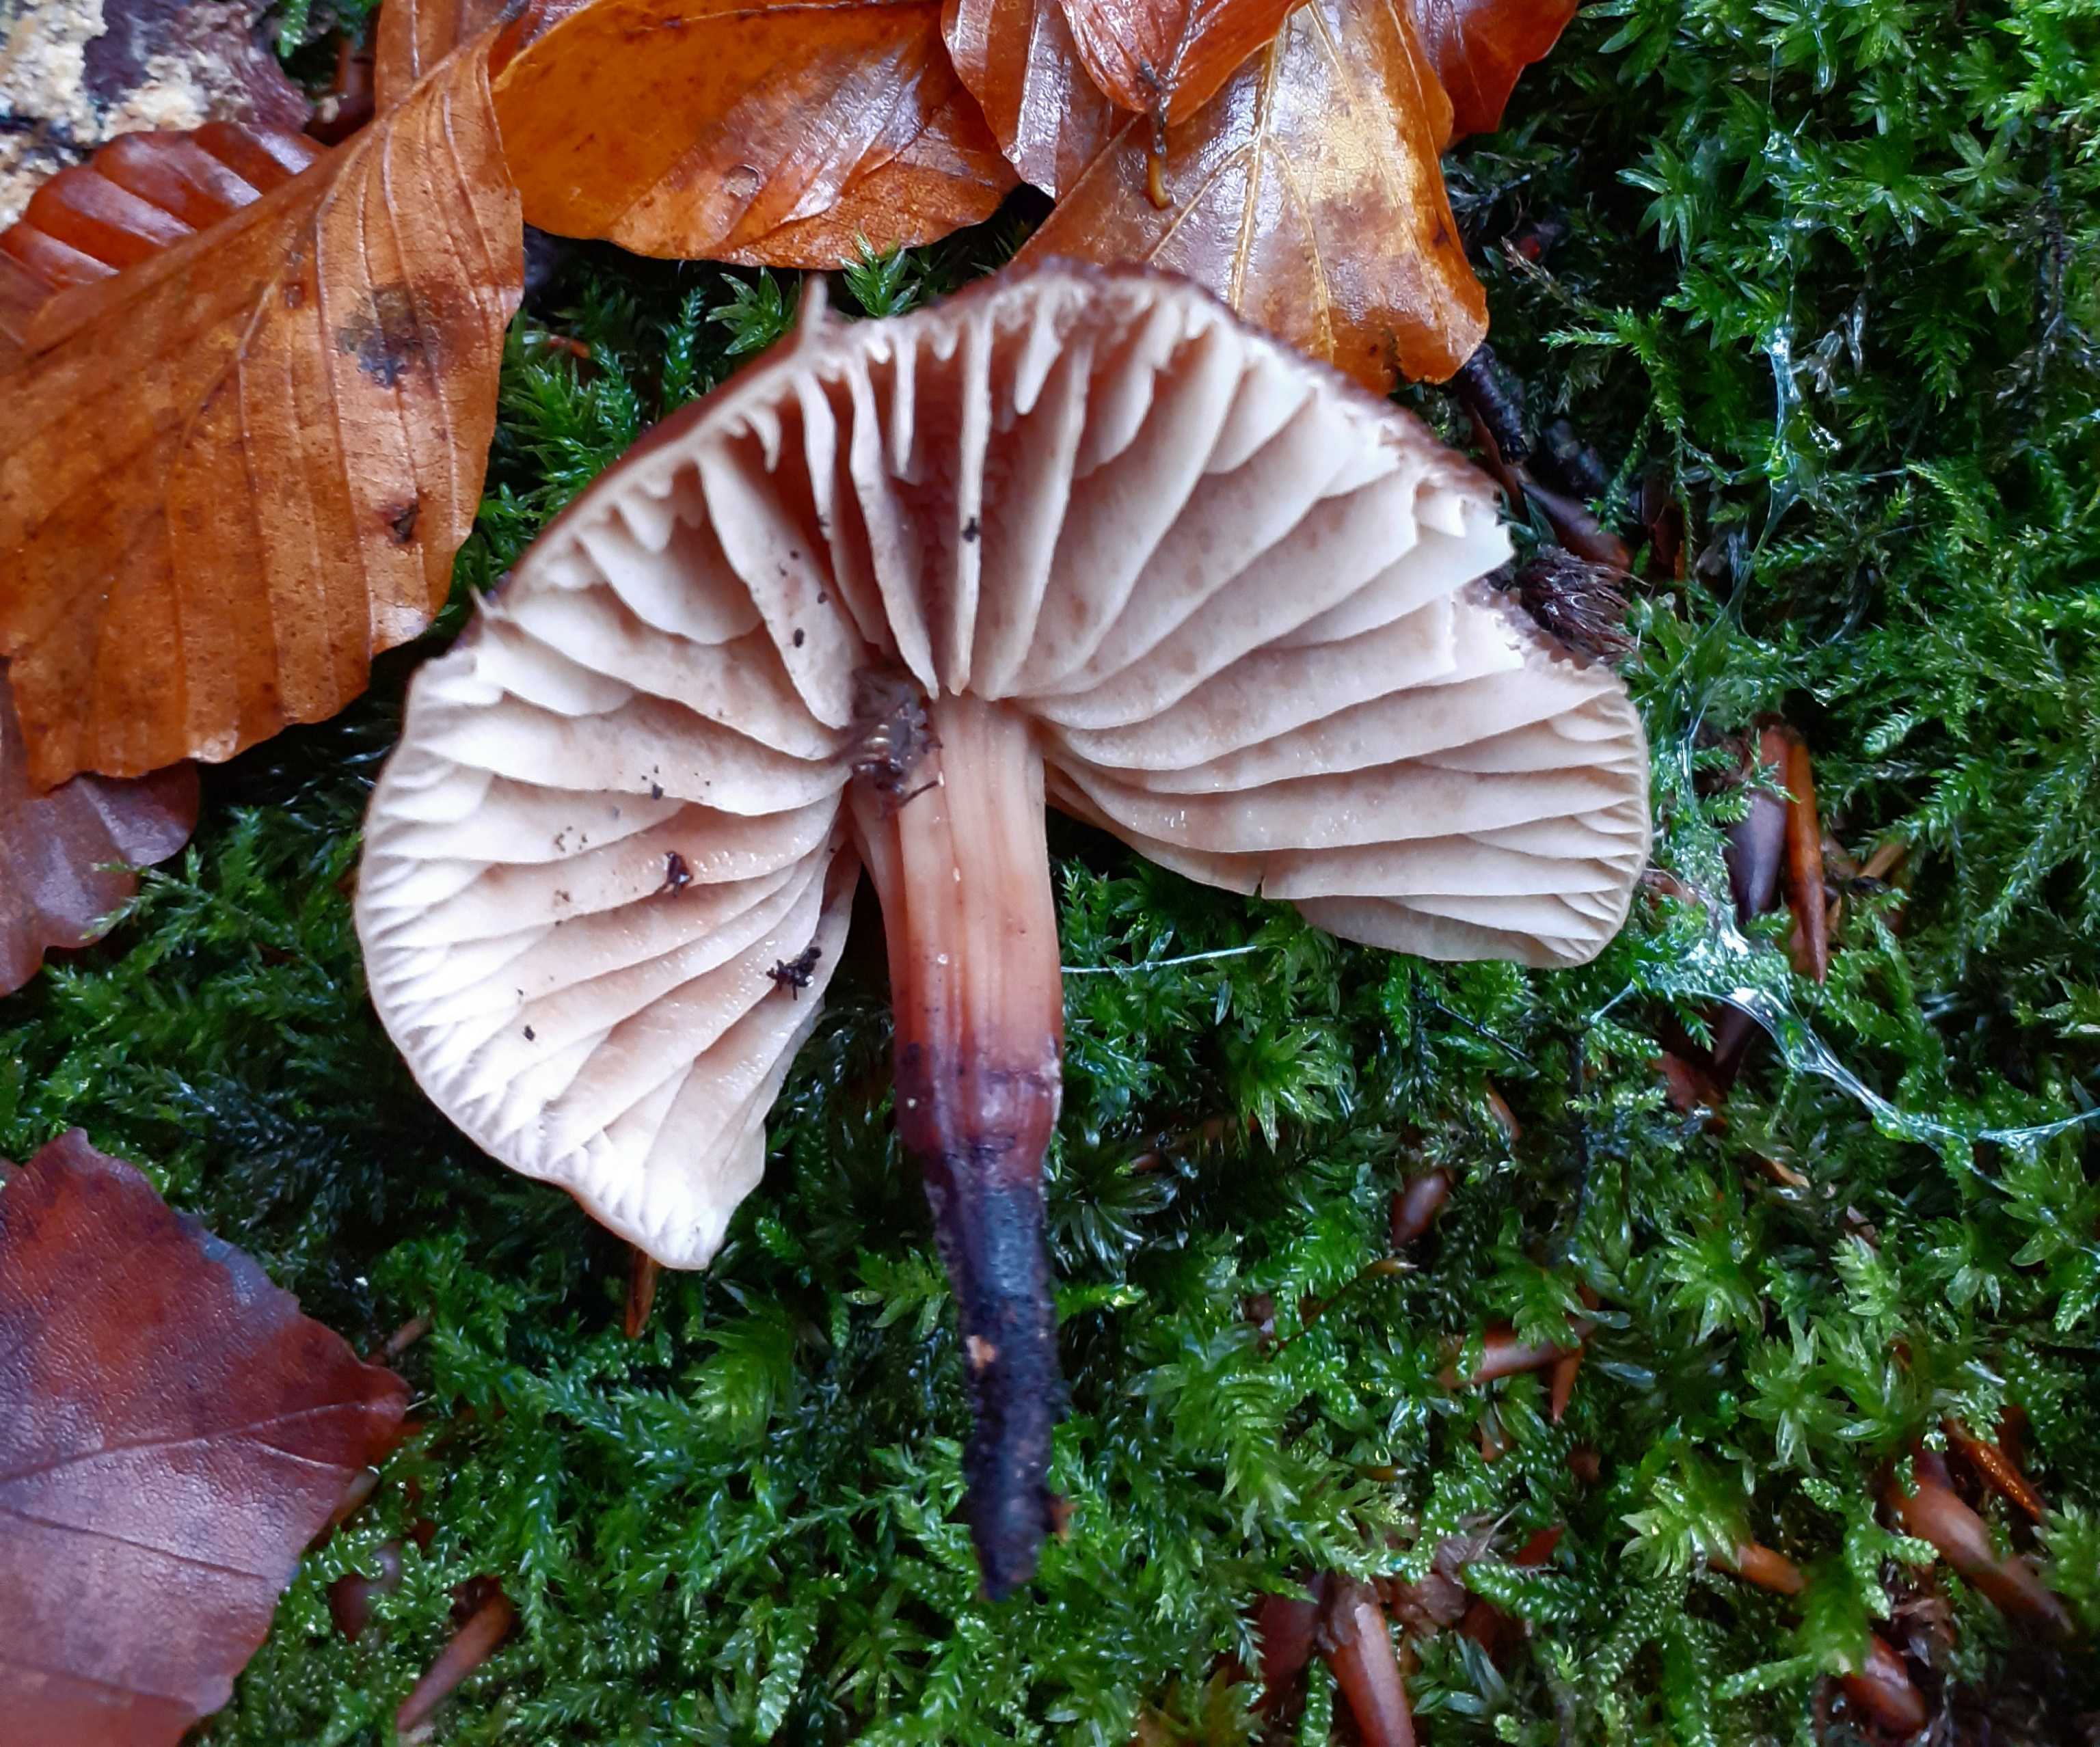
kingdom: Fungi
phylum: Basidiomycota
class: Agaricomycetes
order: Agaricales
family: Omphalotaceae
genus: Gymnopus
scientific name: Gymnopus fusipes
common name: tenstokket fladhat
